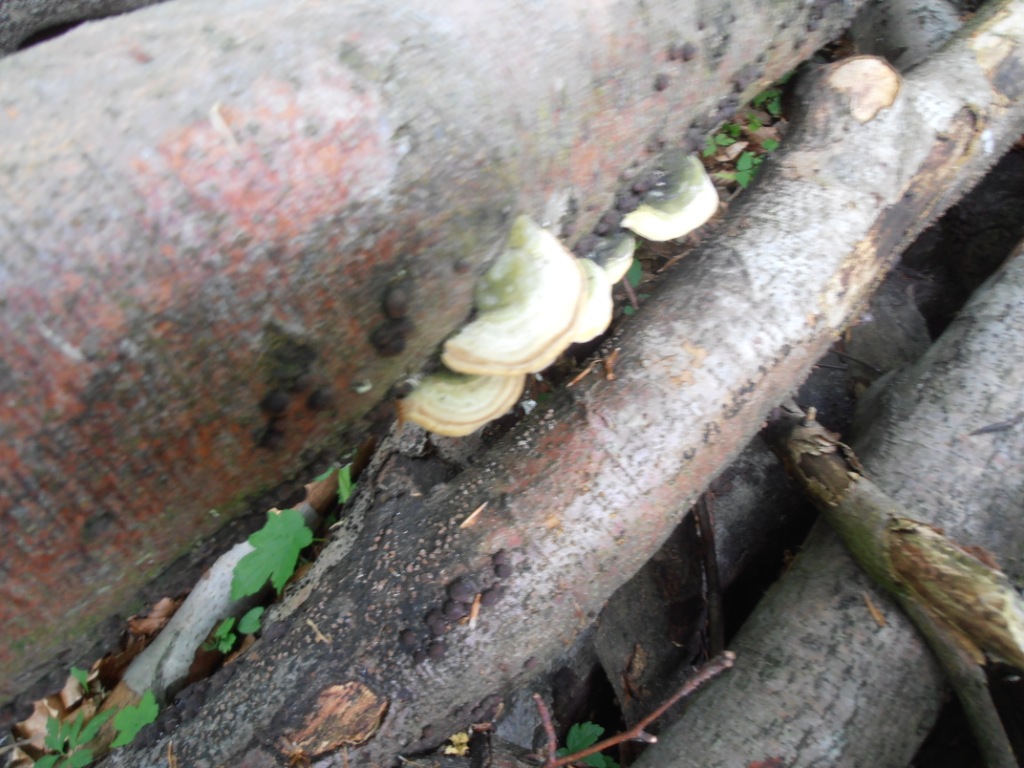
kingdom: Fungi
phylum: Basidiomycota
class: Agaricomycetes
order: Polyporales
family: Polyporaceae
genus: Trametes
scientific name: Trametes hirsuta
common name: håret læderporesvamp
